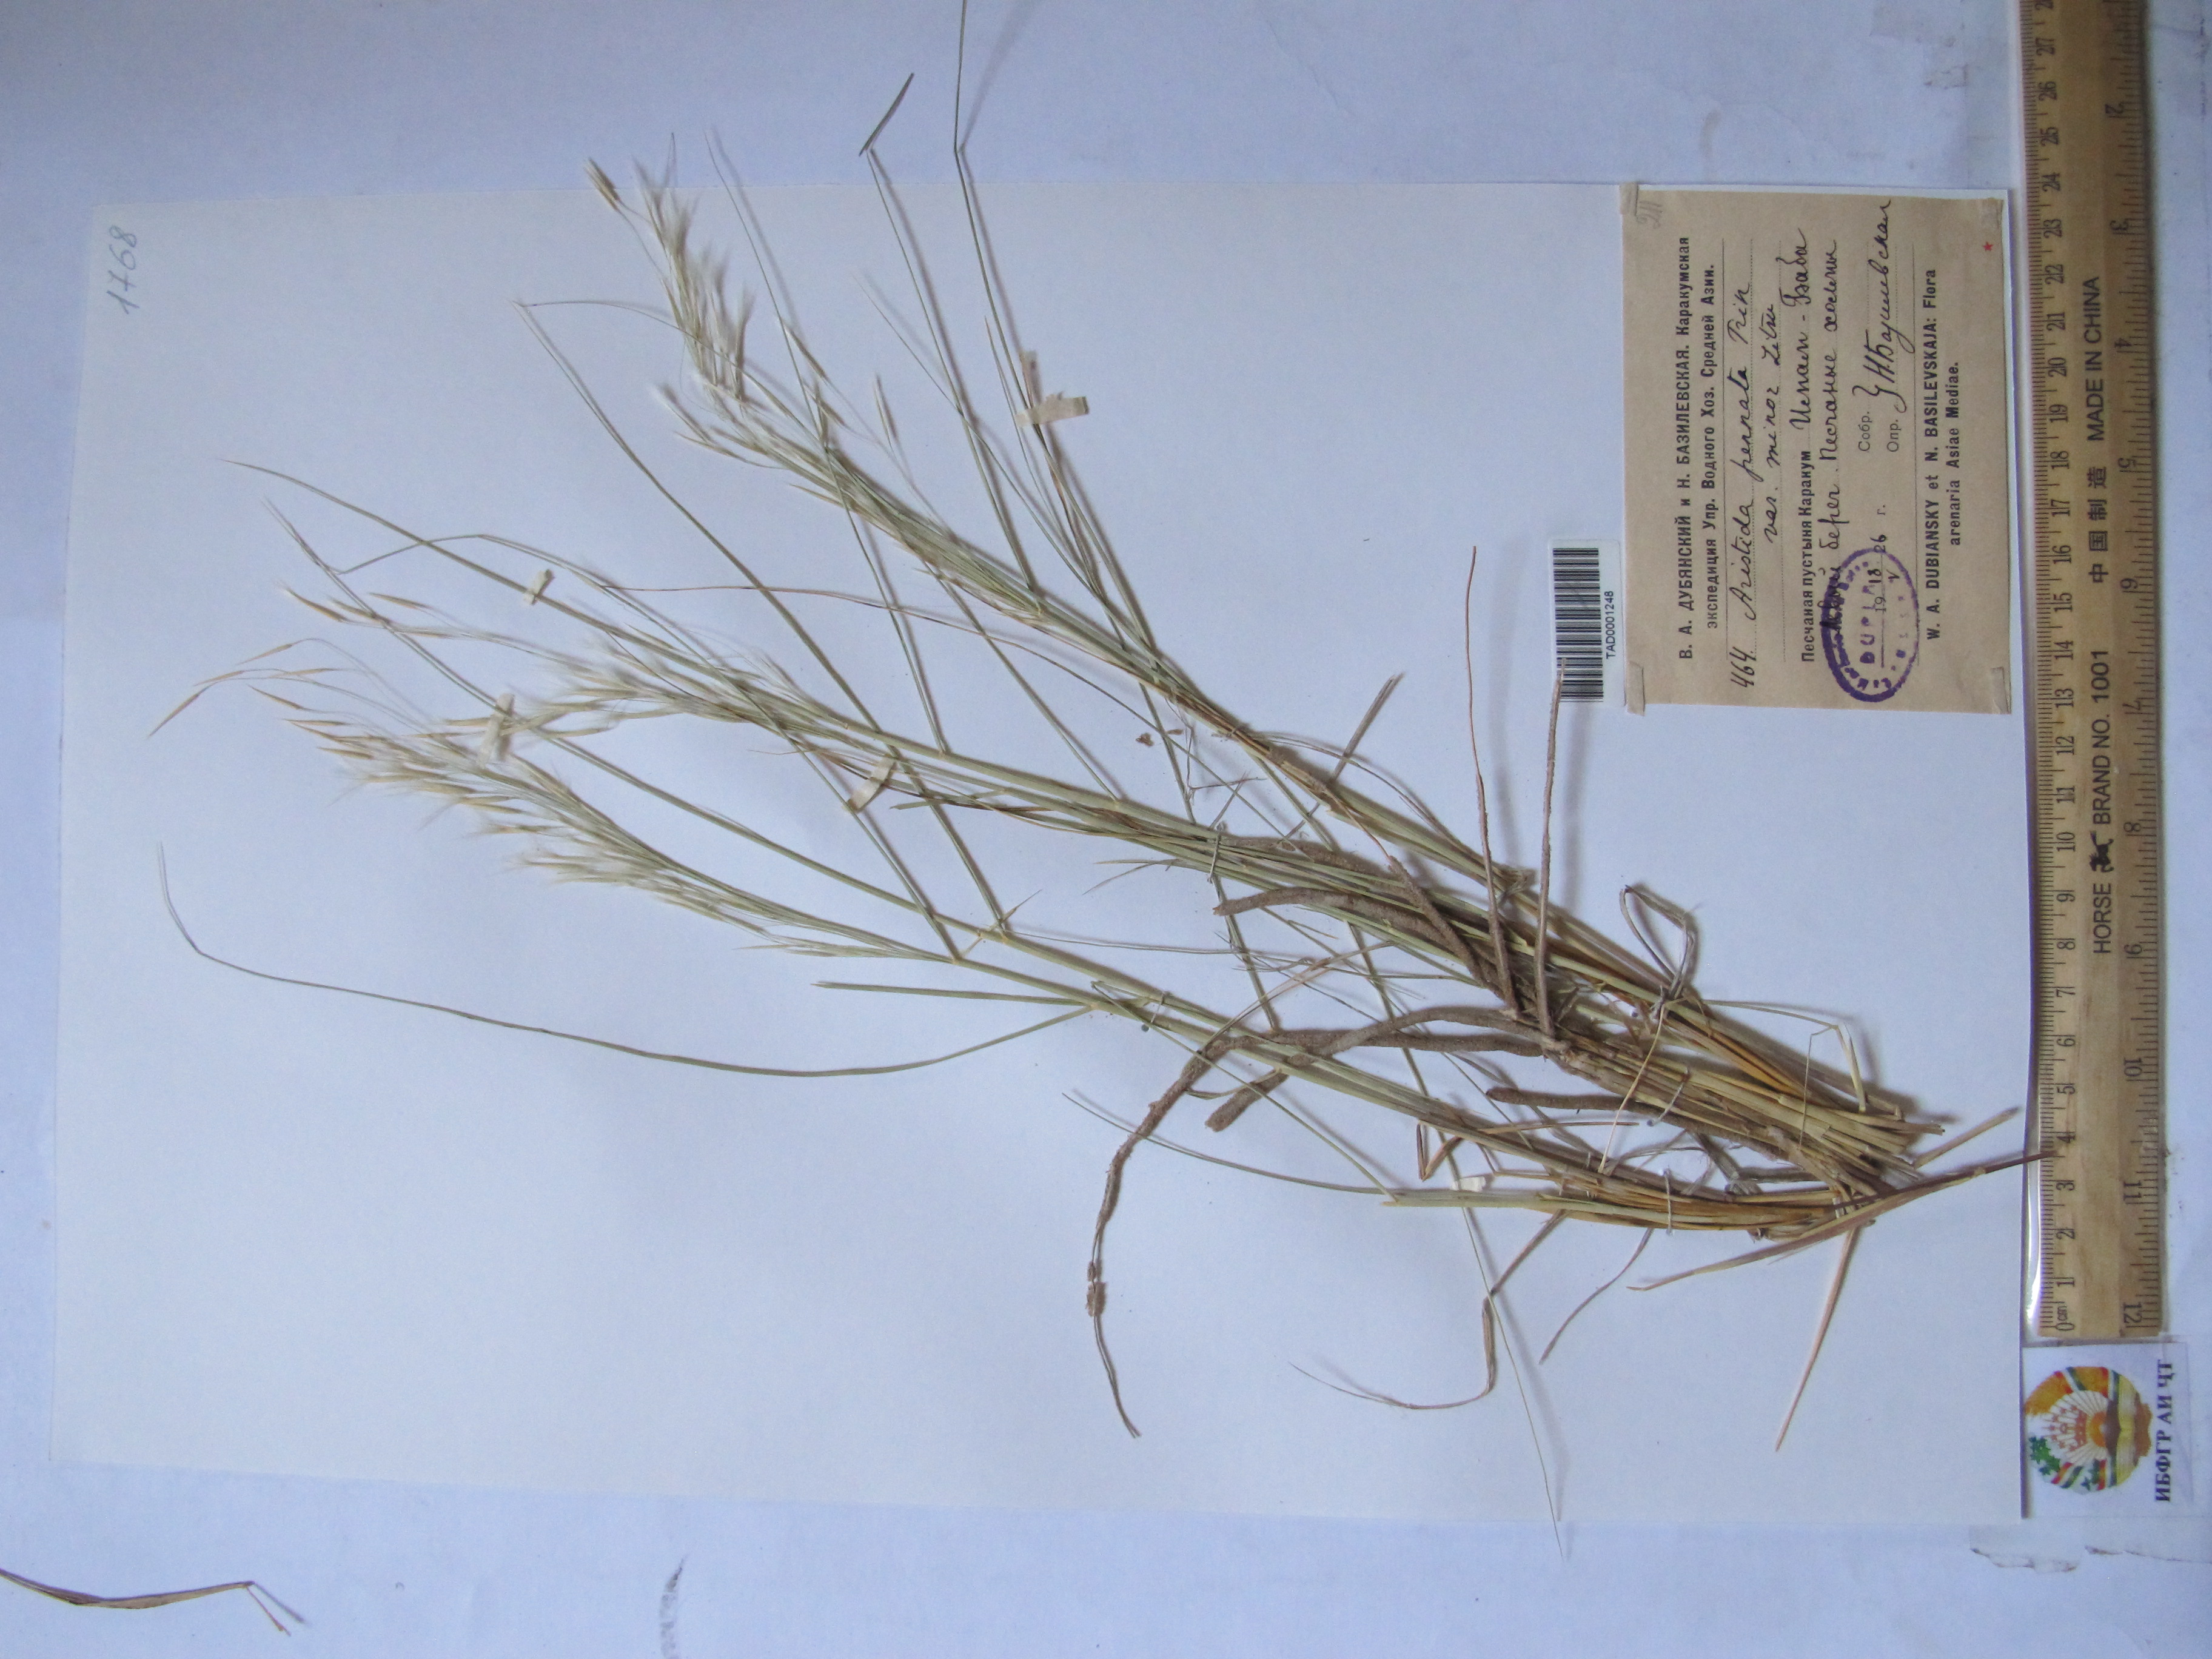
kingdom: Plantae
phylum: Tracheophyta
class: Liliopsida
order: Poales
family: Poaceae
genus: Stipagrostis
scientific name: Stipagrostis pennata
